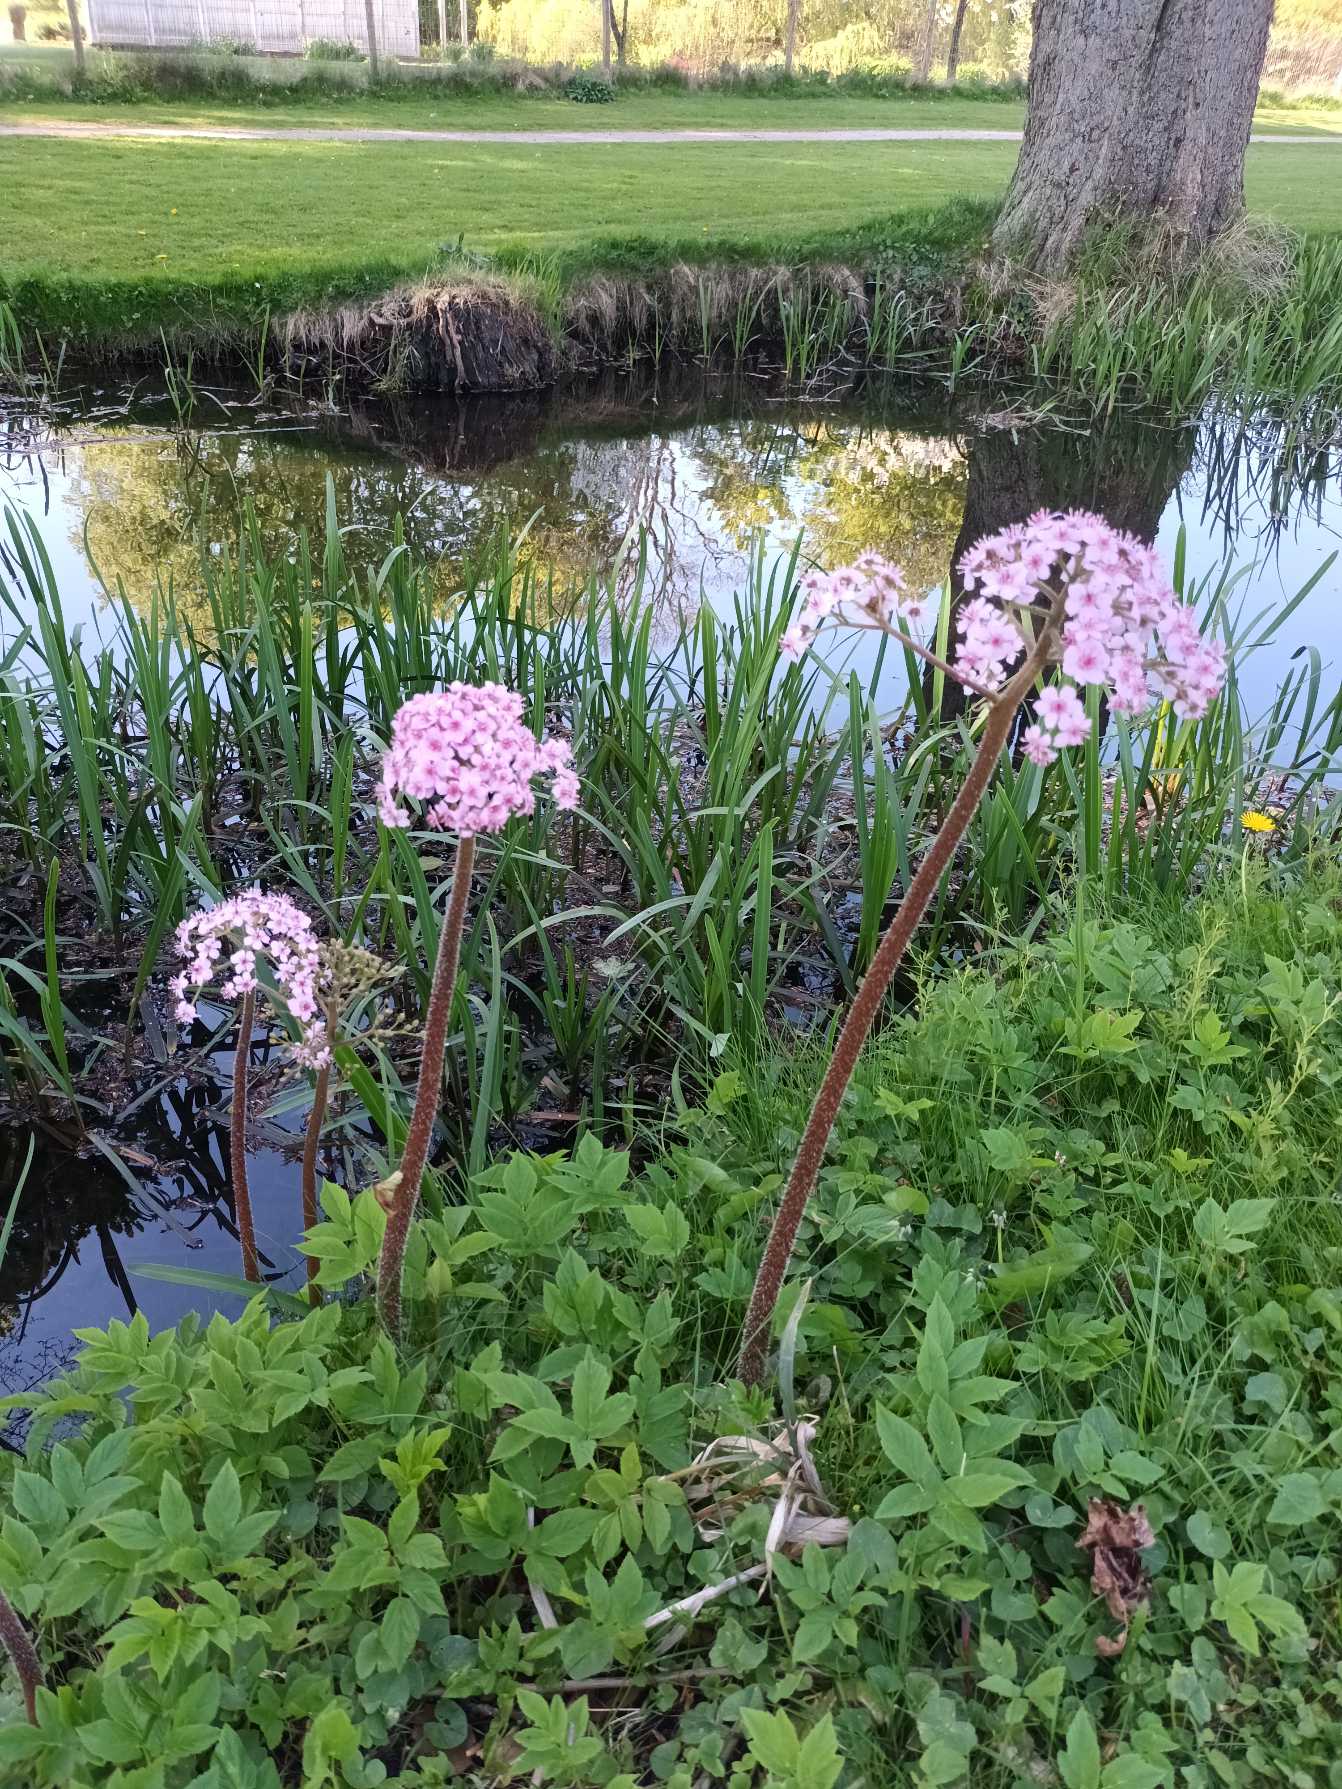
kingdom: Plantae
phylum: Tracheophyta
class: Magnoliopsida
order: Saxifragales
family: Saxifragaceae
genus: Darmera
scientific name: Darmera peltata
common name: Skjoldblad
